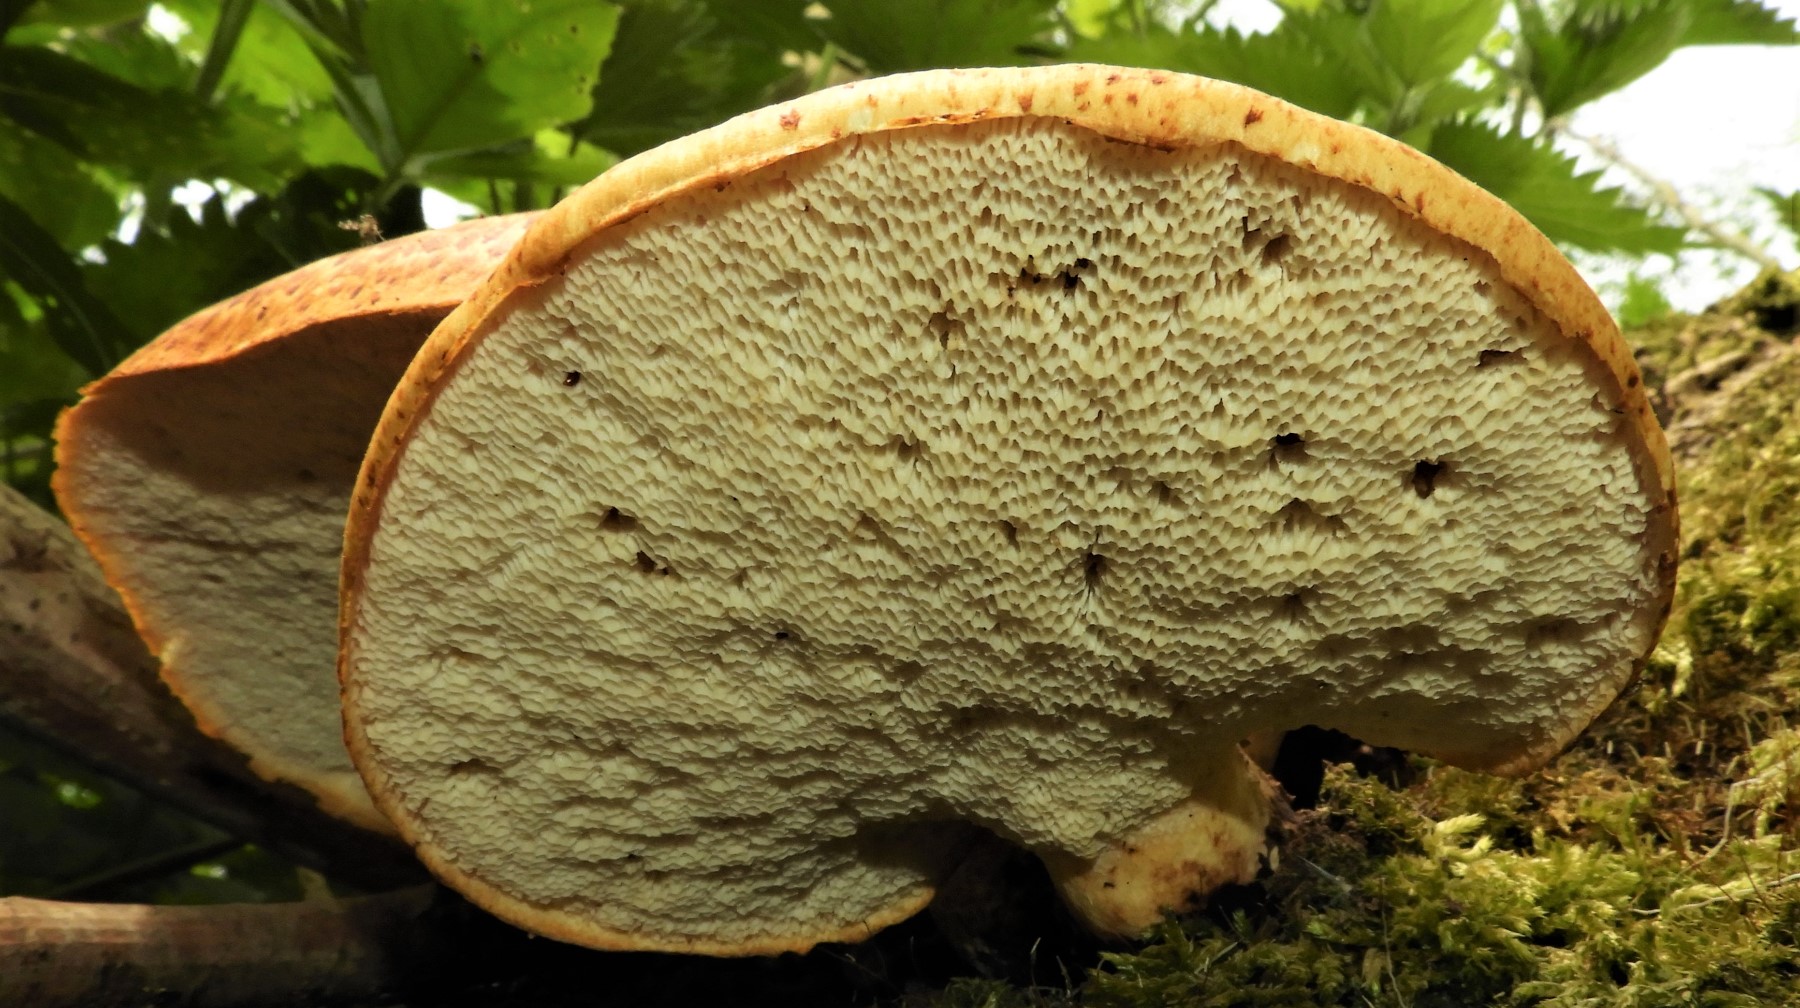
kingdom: Fungi
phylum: Basidiomycota
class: Agaricomycetes
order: Polyporales
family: Polyporaceae
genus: Cerioporus
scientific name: Cerioporus squamosus
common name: skællet stilkporesvamp
